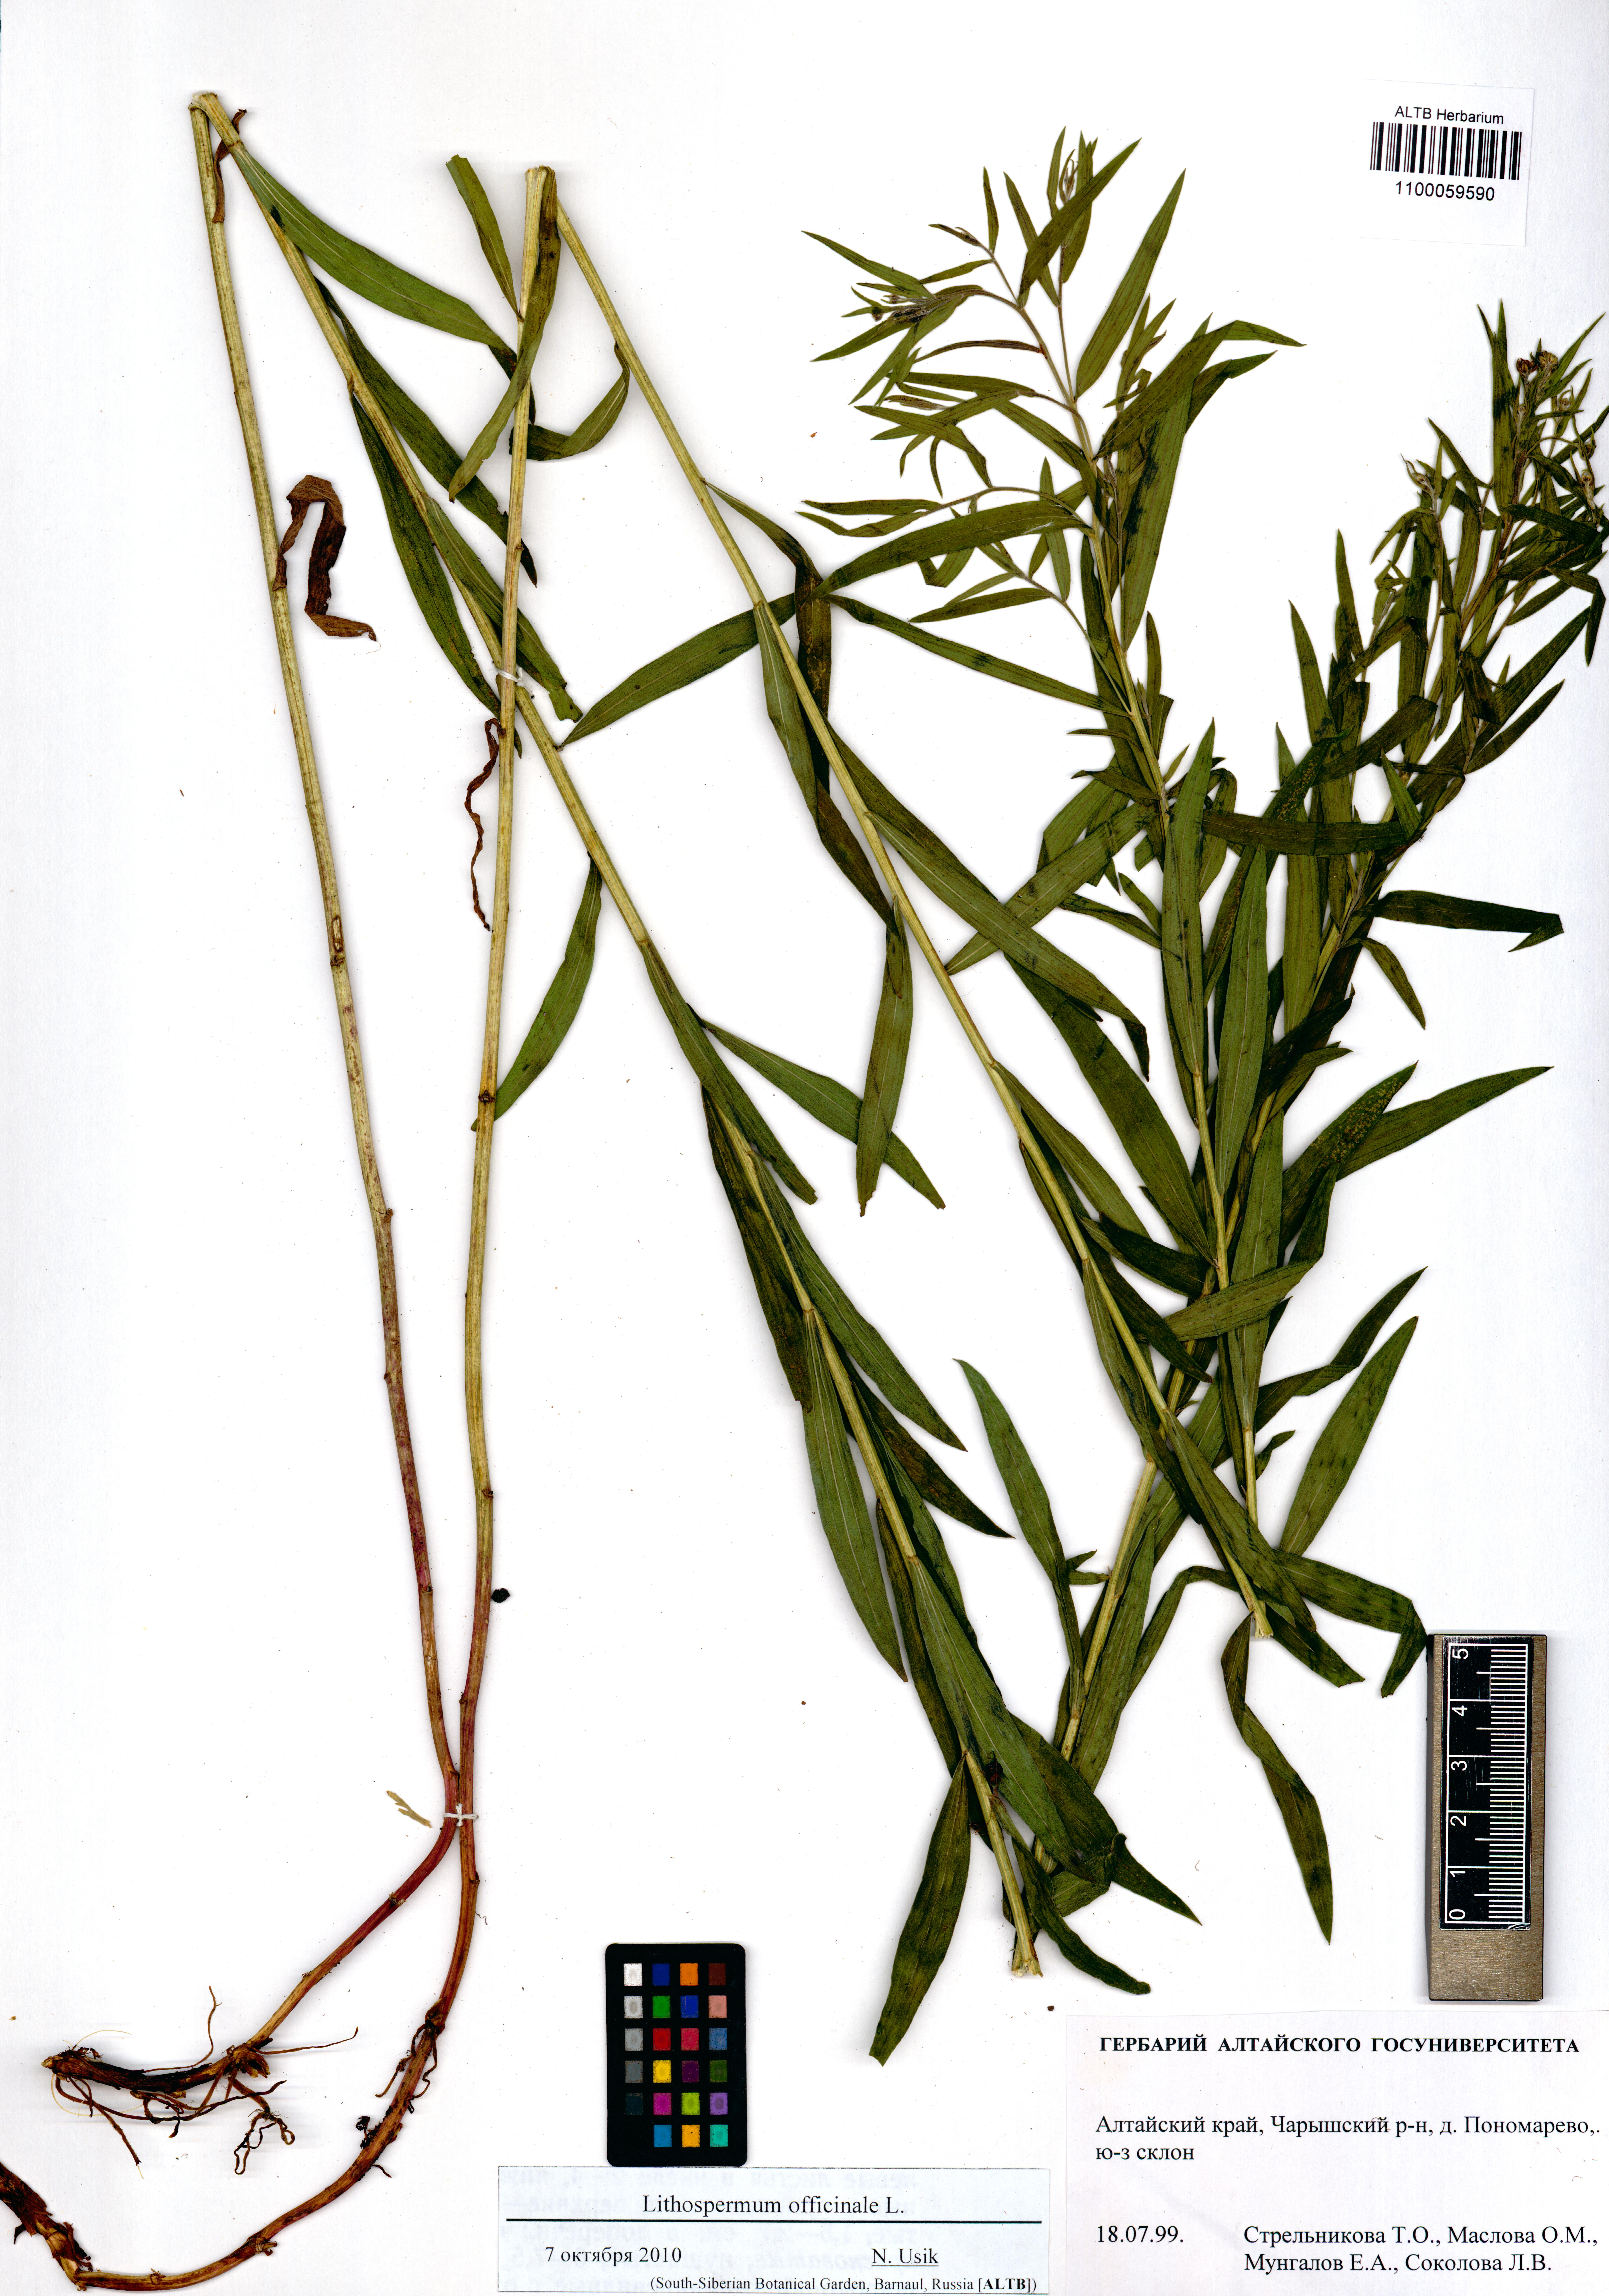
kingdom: Plantae
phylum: Tracheophyta
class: Magnoliopsida
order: Boraginales
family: Boraginaceae
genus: Lithospermum
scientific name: Lithospermum officinale
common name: Common gromwell
